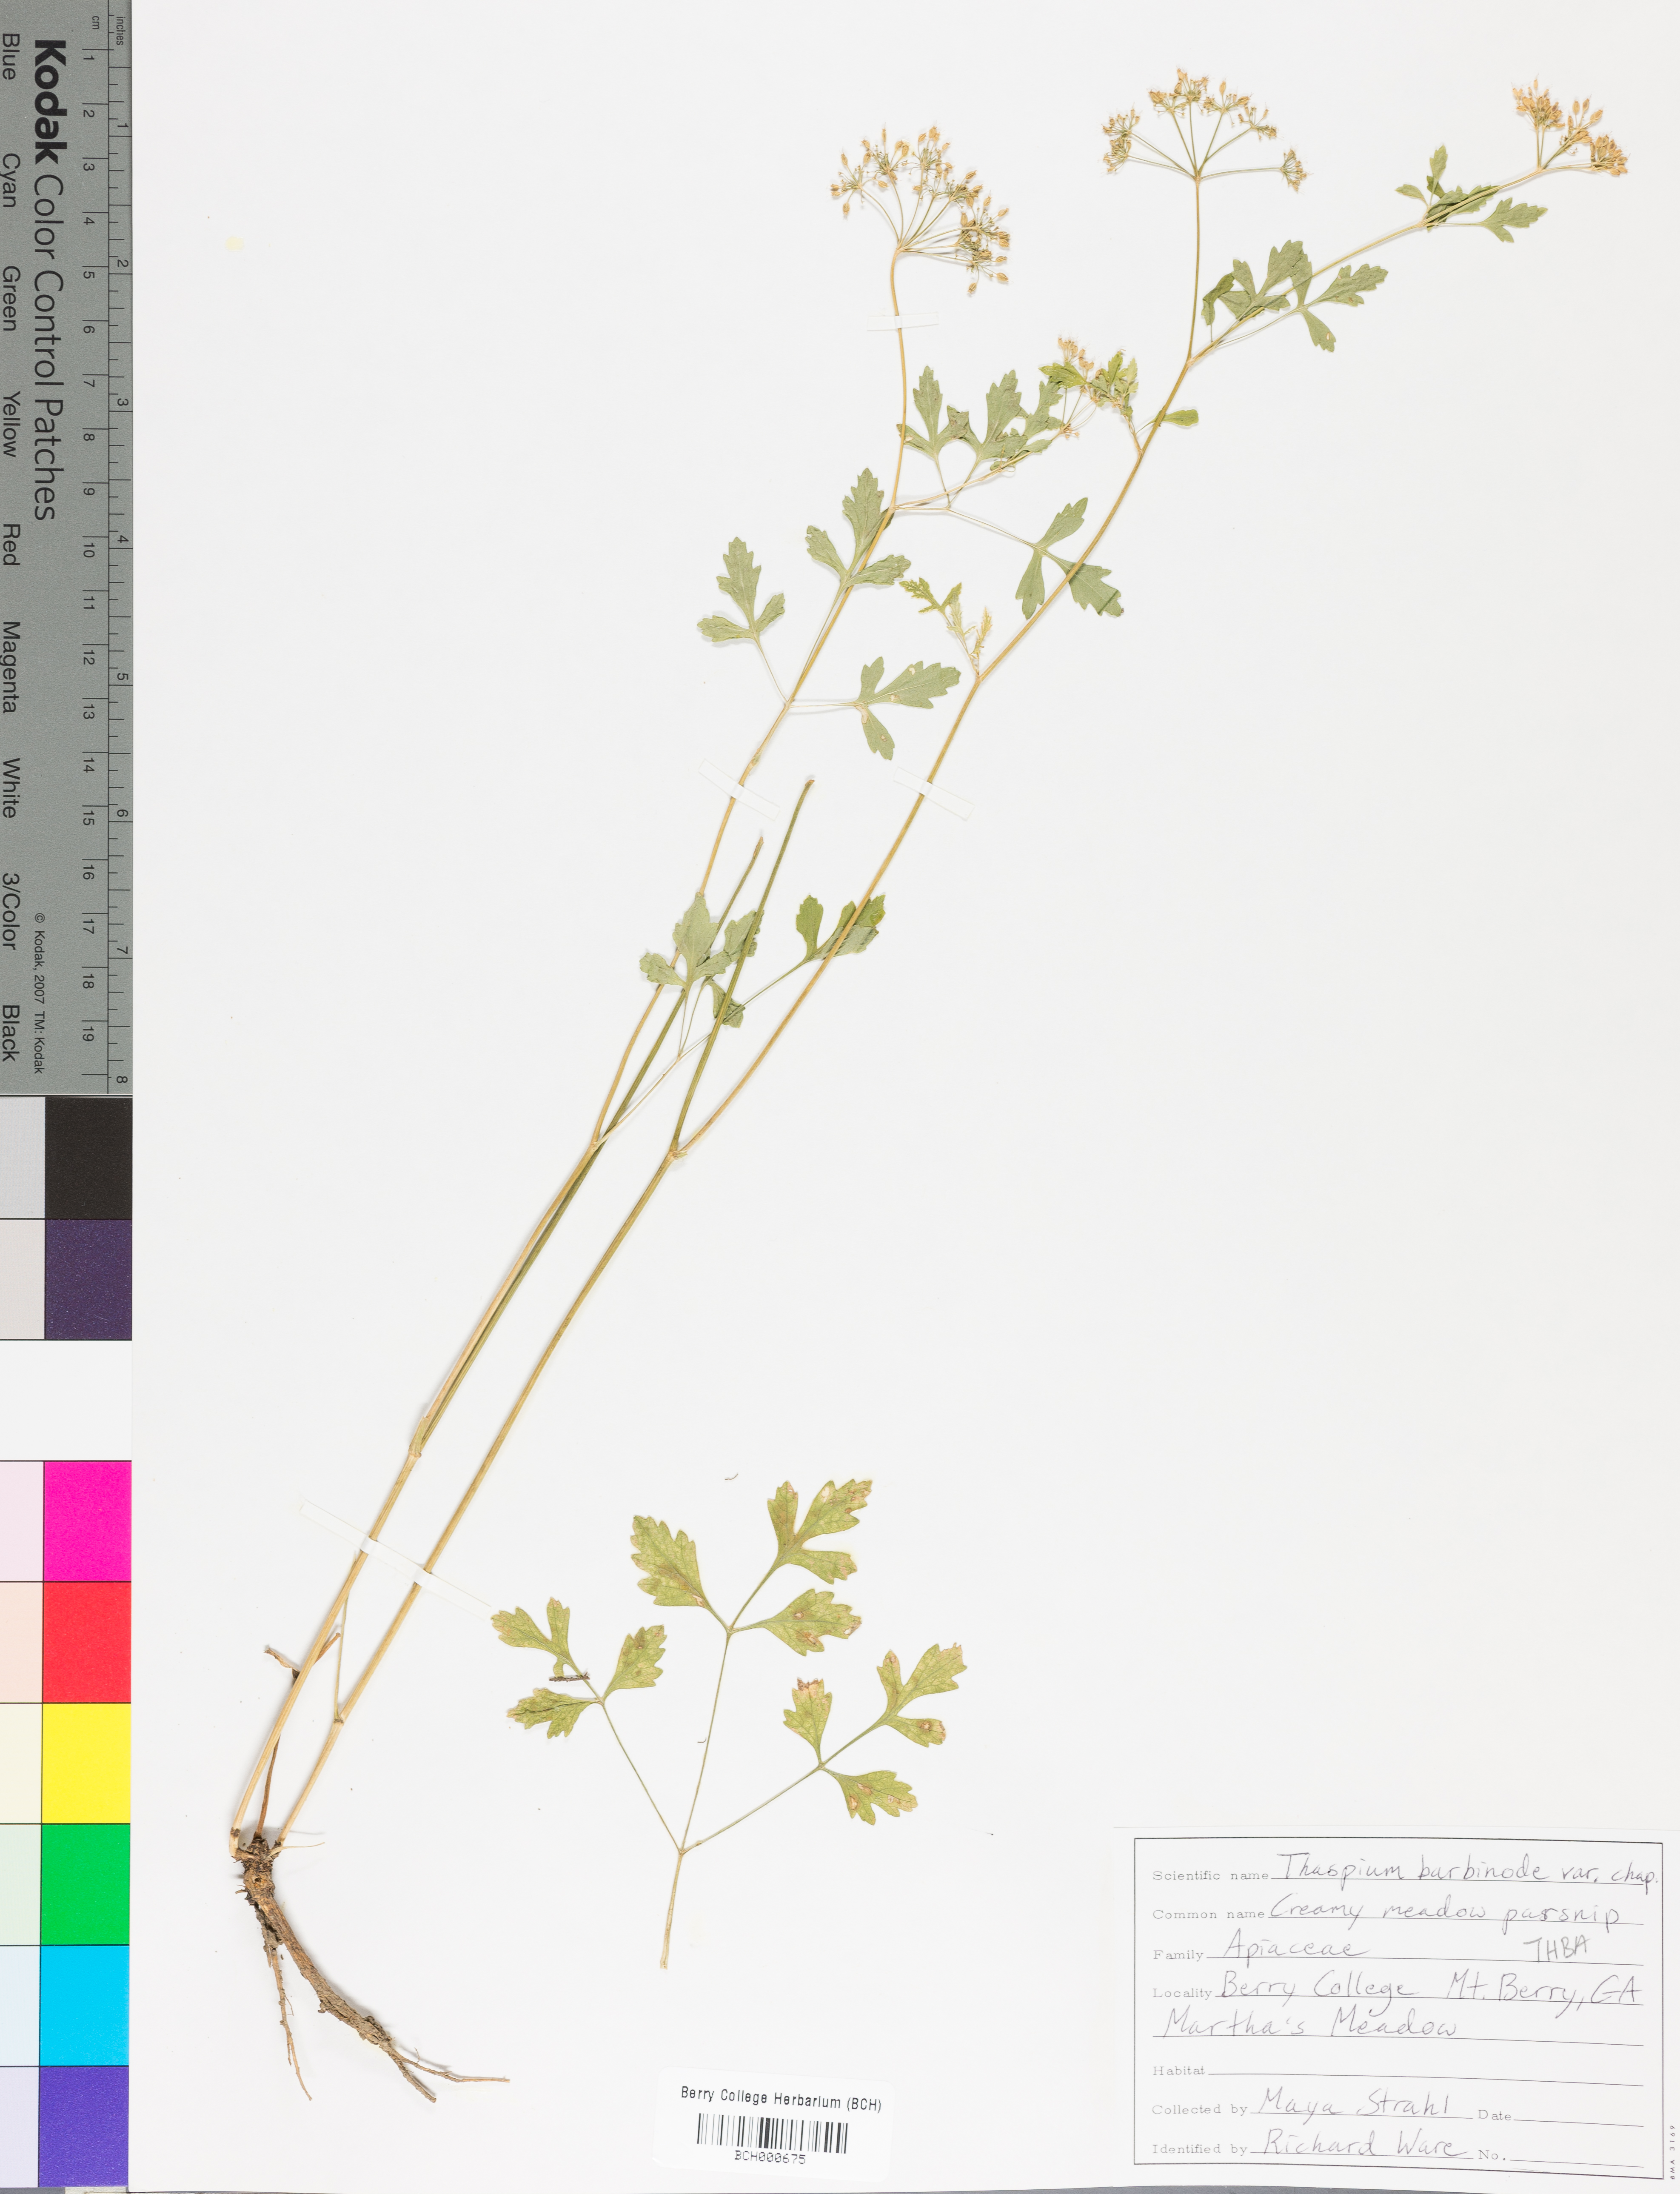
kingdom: Plantae
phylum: Tracheophyta
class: Magnoliopsida
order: Apiales
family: Apiaceae
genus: Thaspium
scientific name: Thaspium barbinode
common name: Bearded meadow-parsnip
